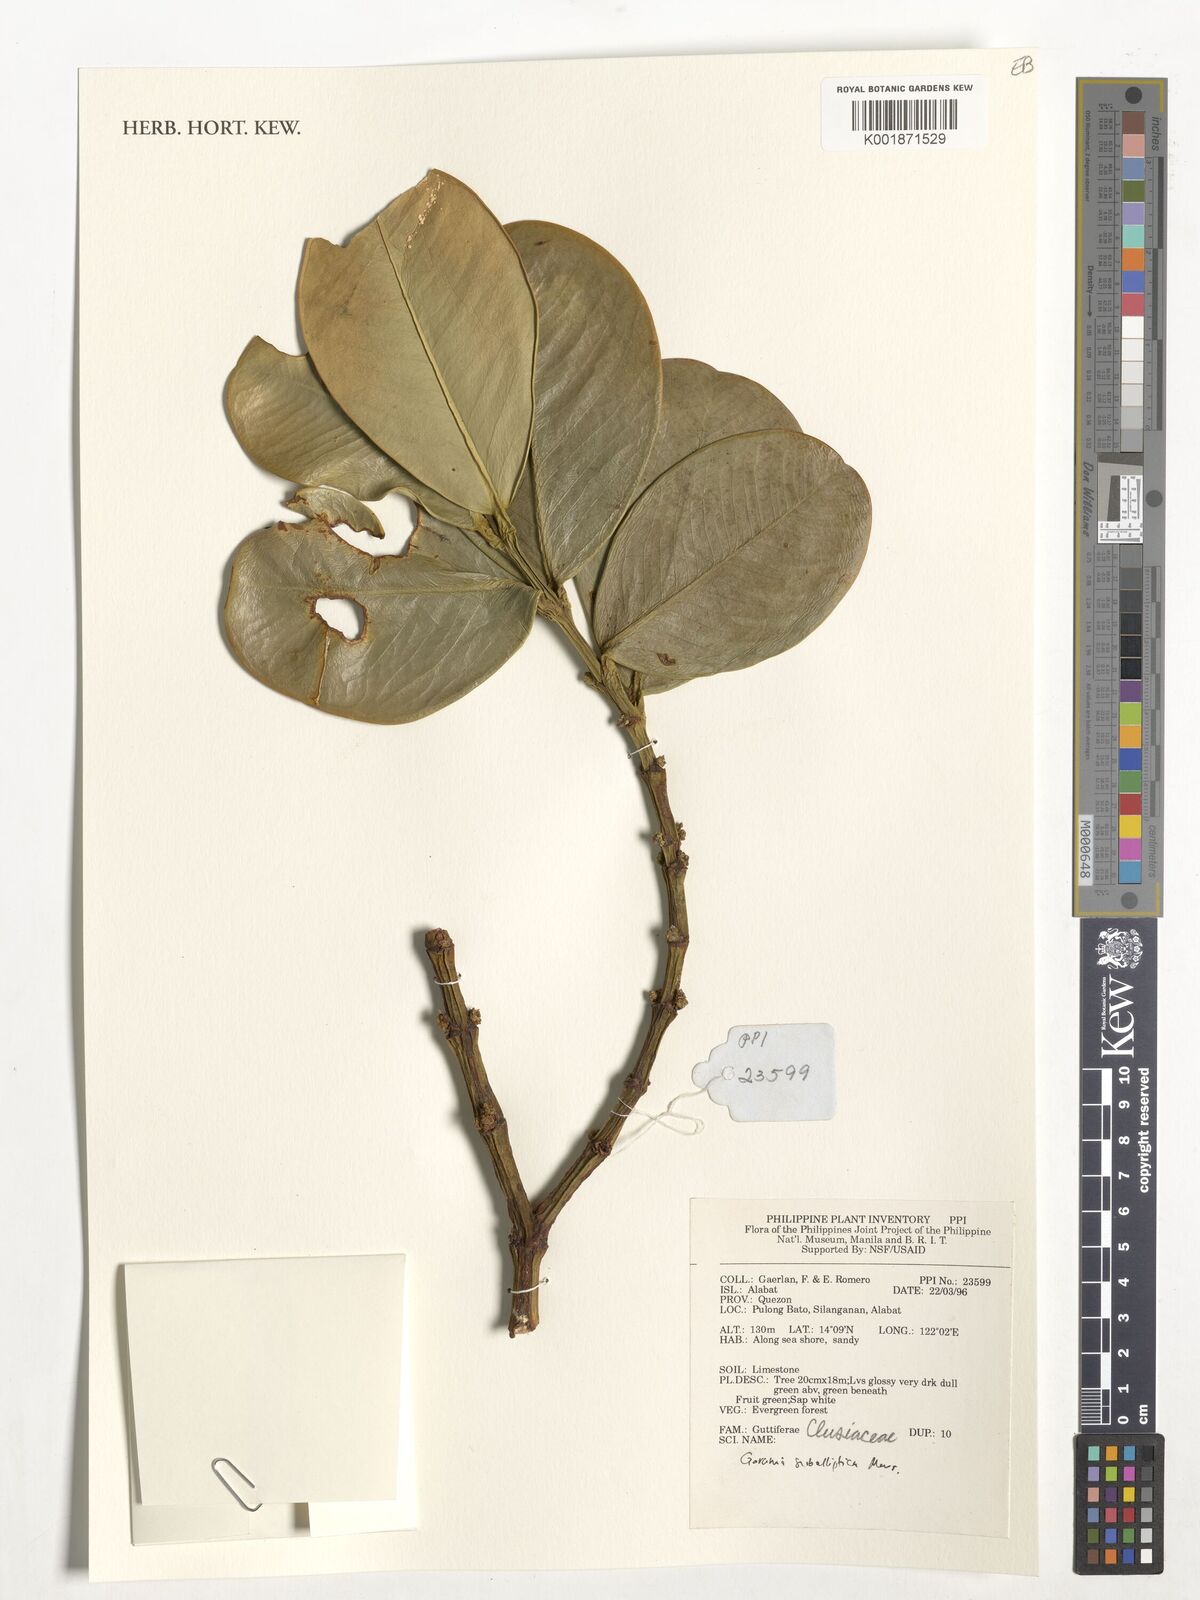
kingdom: Plantae
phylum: Tracheophyta
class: Magnoliopsida
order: Malpighiales
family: Clusiaceae
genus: Garcinia
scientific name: Garcinia subelliptica
